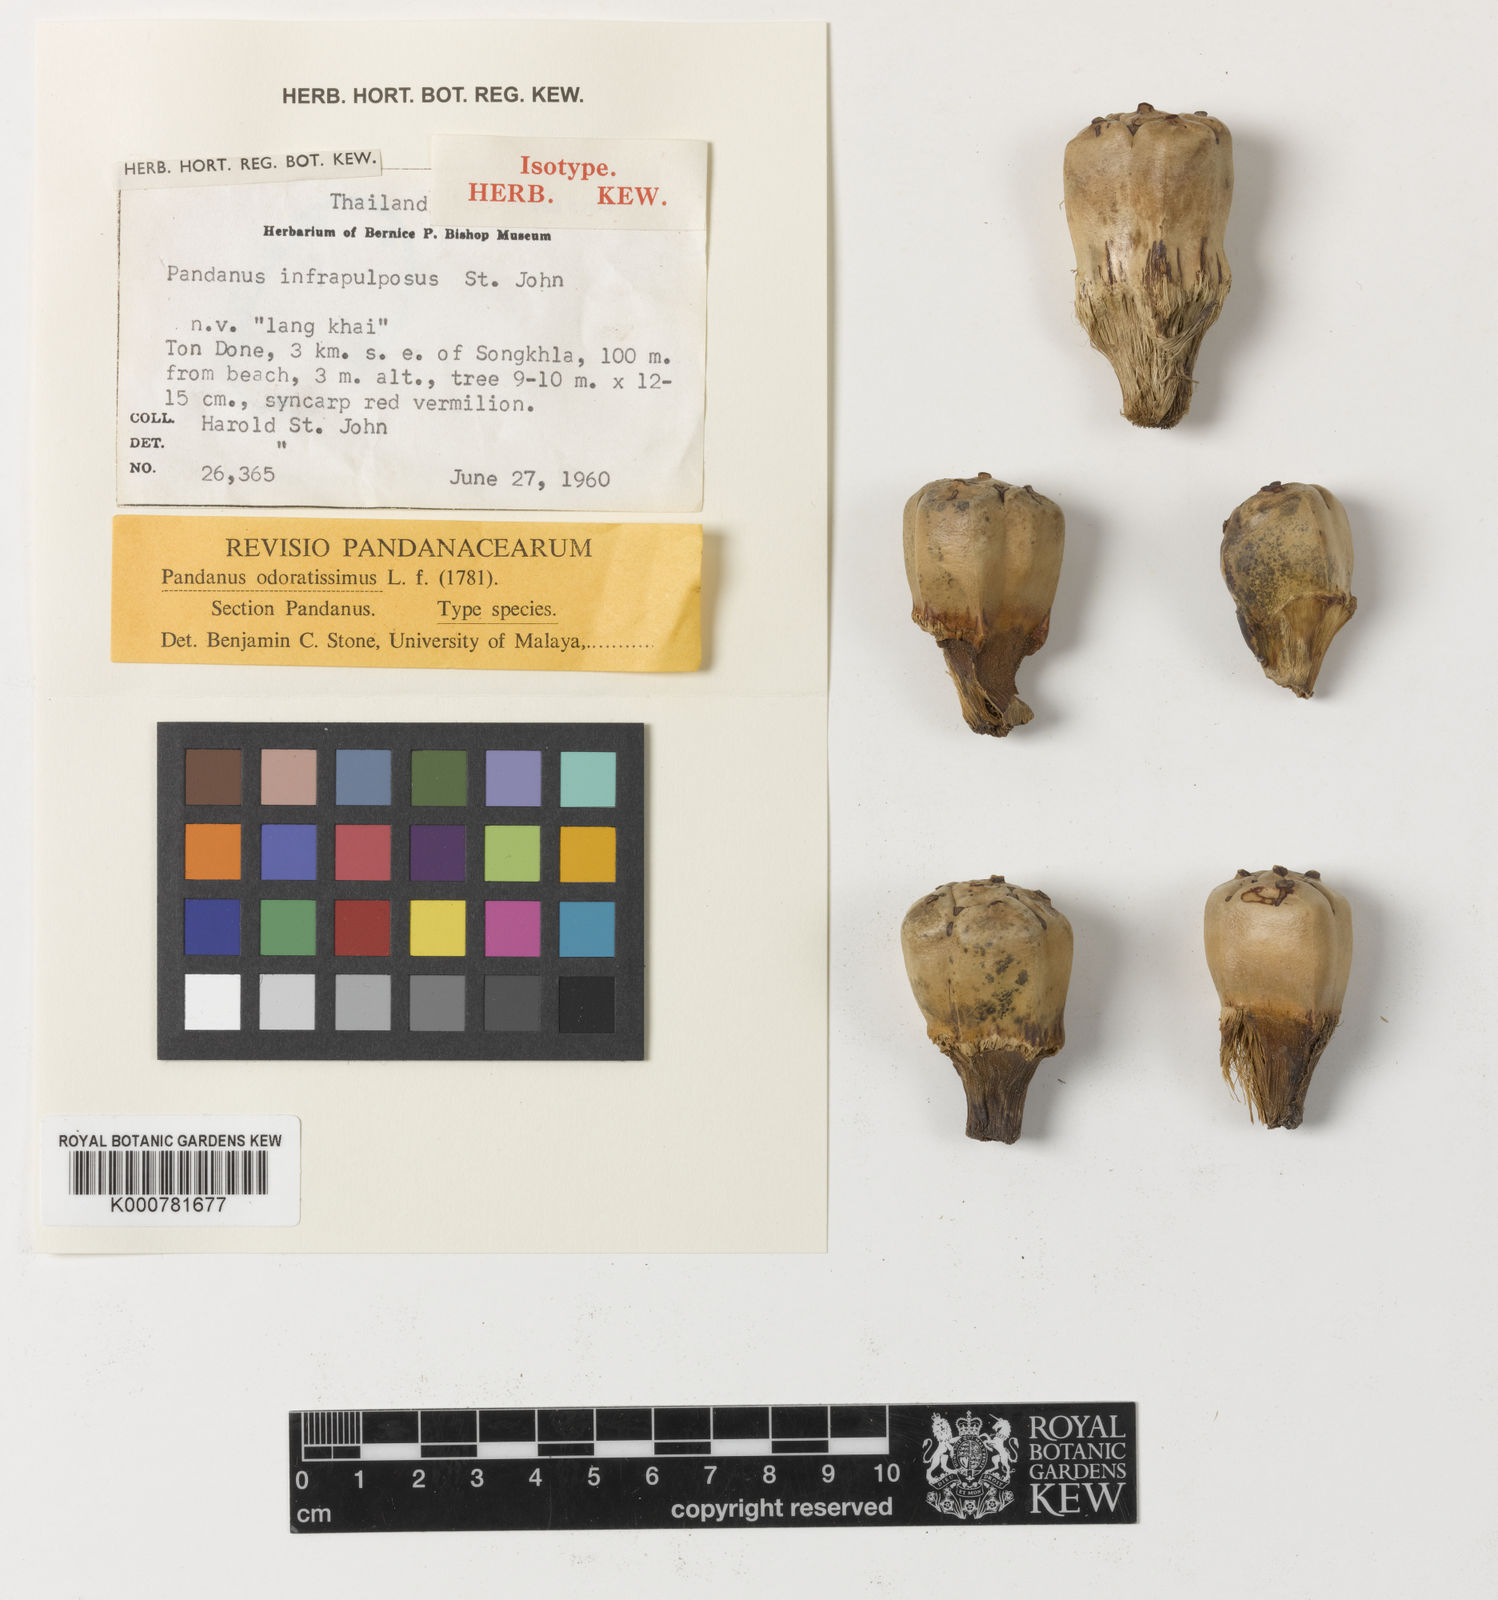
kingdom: Plantae
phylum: Tracheophyta
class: Liliopsida
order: Pandanales
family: Pandanaceae
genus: Pandanus
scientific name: Pandanus odorifer
